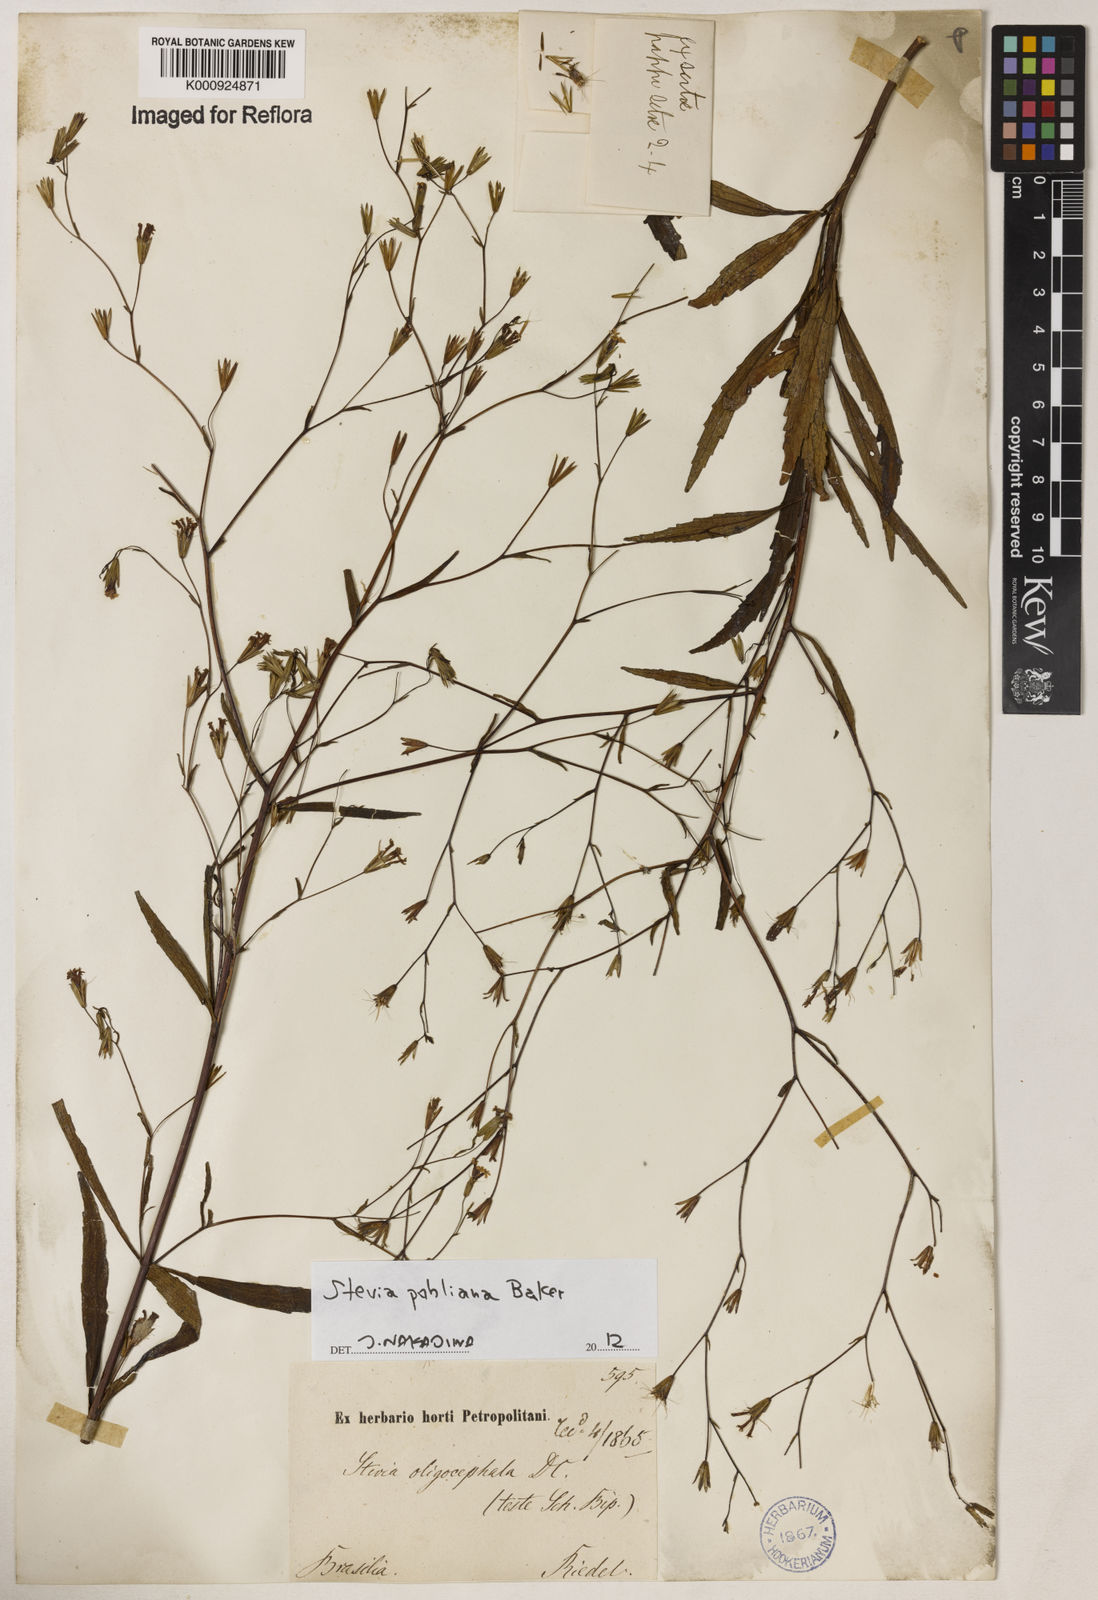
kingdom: Plantae
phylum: Tracheophyta
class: Magnoliopsida
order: Asterales
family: Asteraceae
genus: Stevia
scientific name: Stevia pohliana
